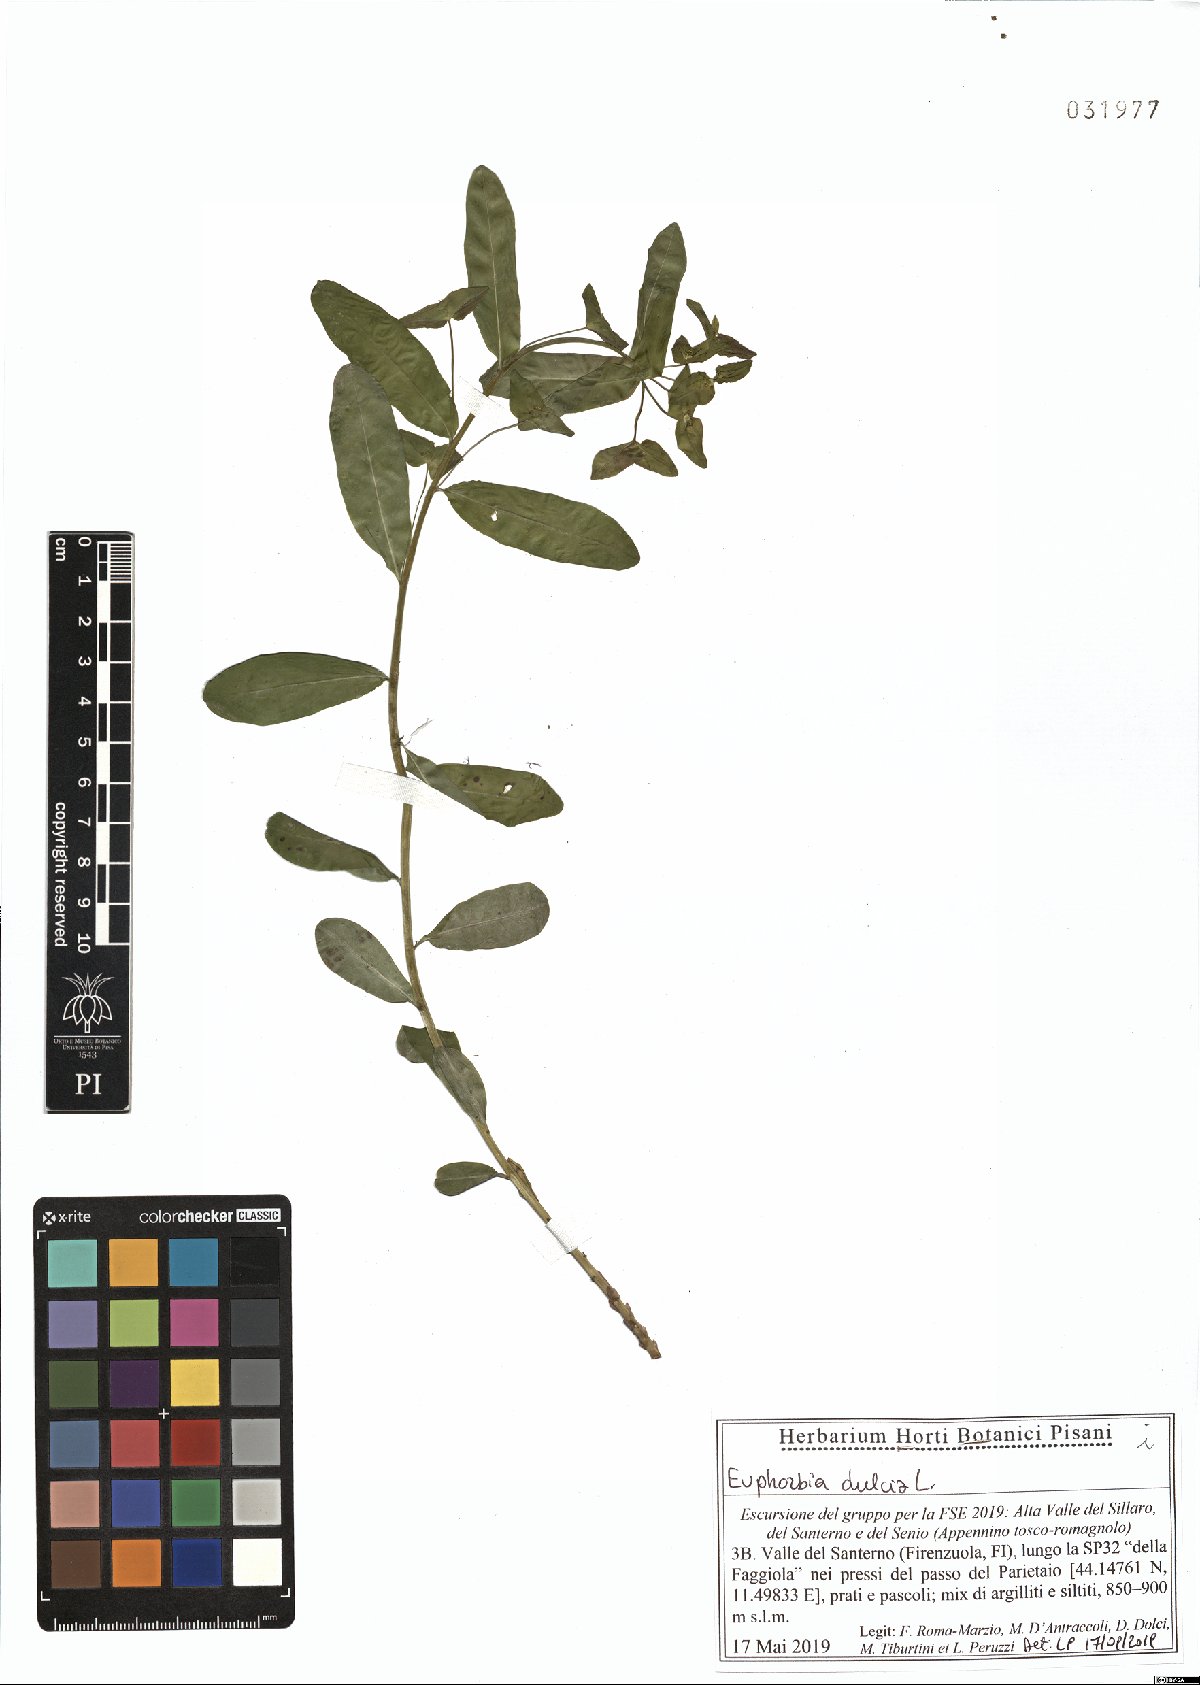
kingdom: Plantae
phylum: Tracheophyta
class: Magnoliopsida
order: Malpighiales
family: Euphorbiaceae
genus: Euphorbia
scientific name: Euphorbia dulcis
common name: Sweet spurge
